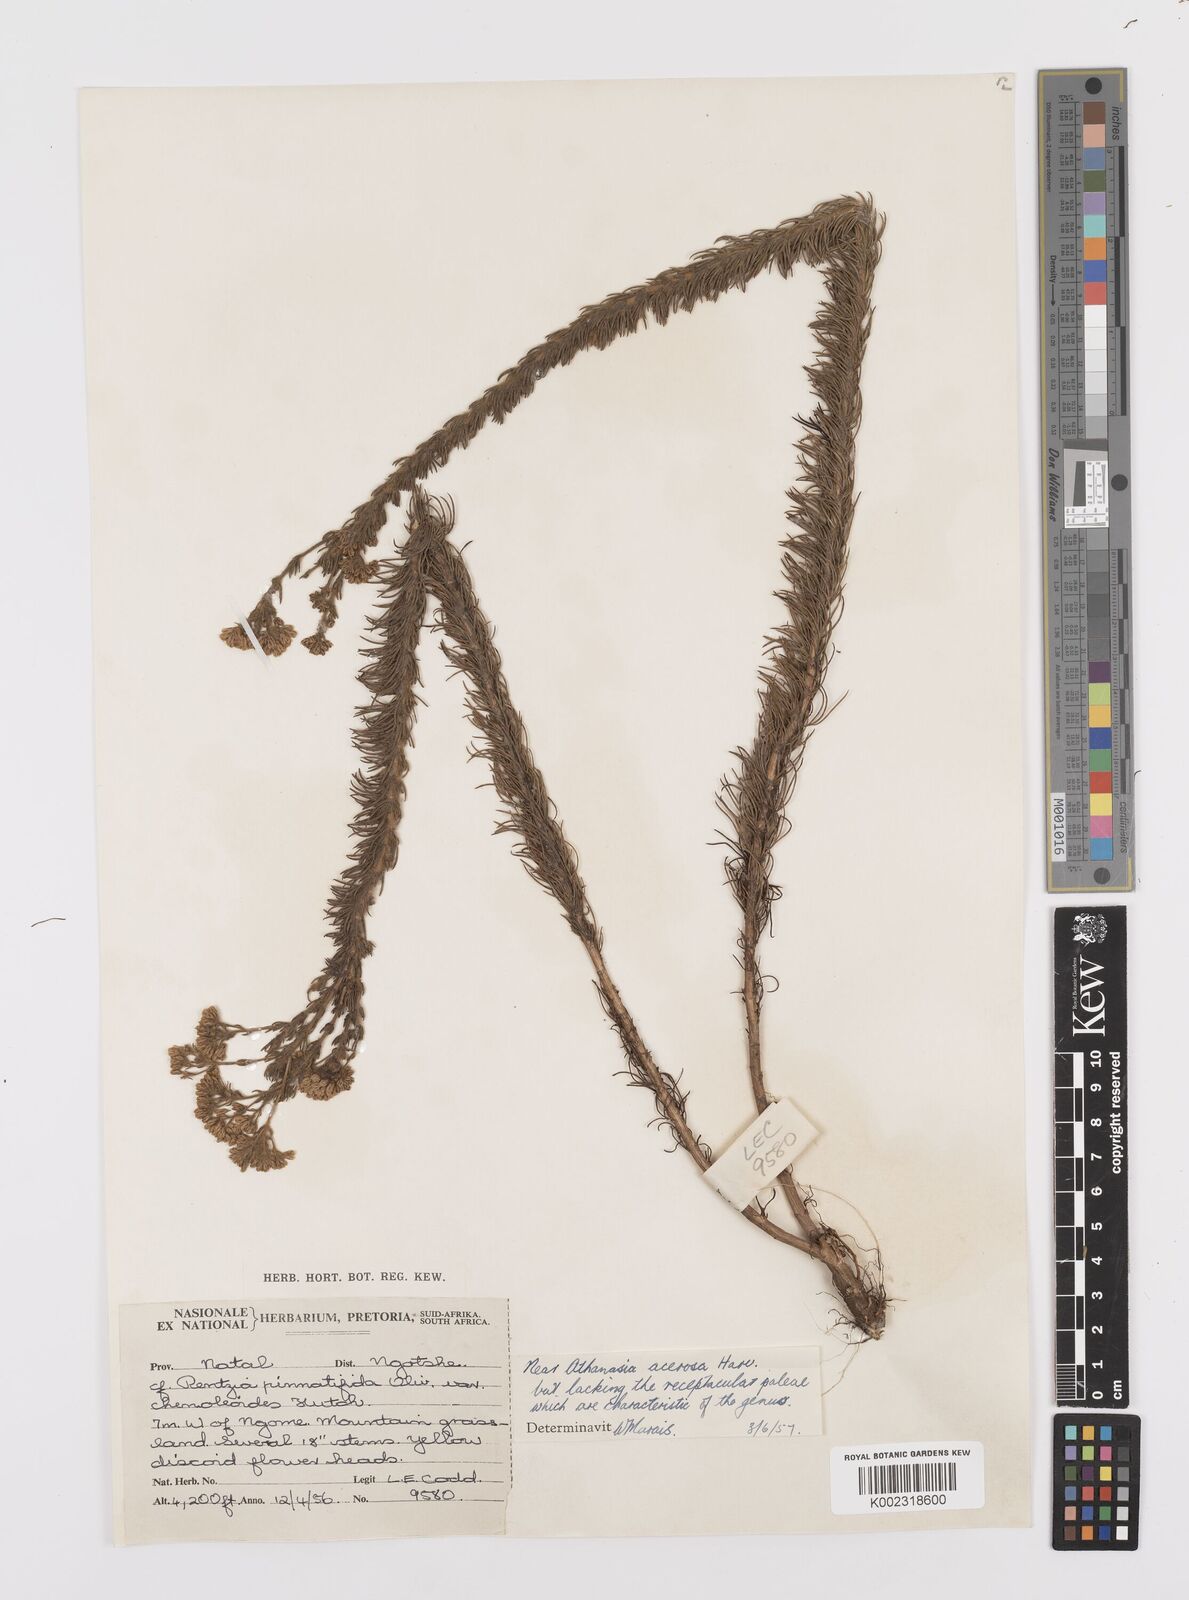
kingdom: Plantae
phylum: Tracheophyta
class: Magnoliopsida
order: Asterales
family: Asteraceae
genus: Phymaspermum
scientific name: Phymaspermum acerosum
